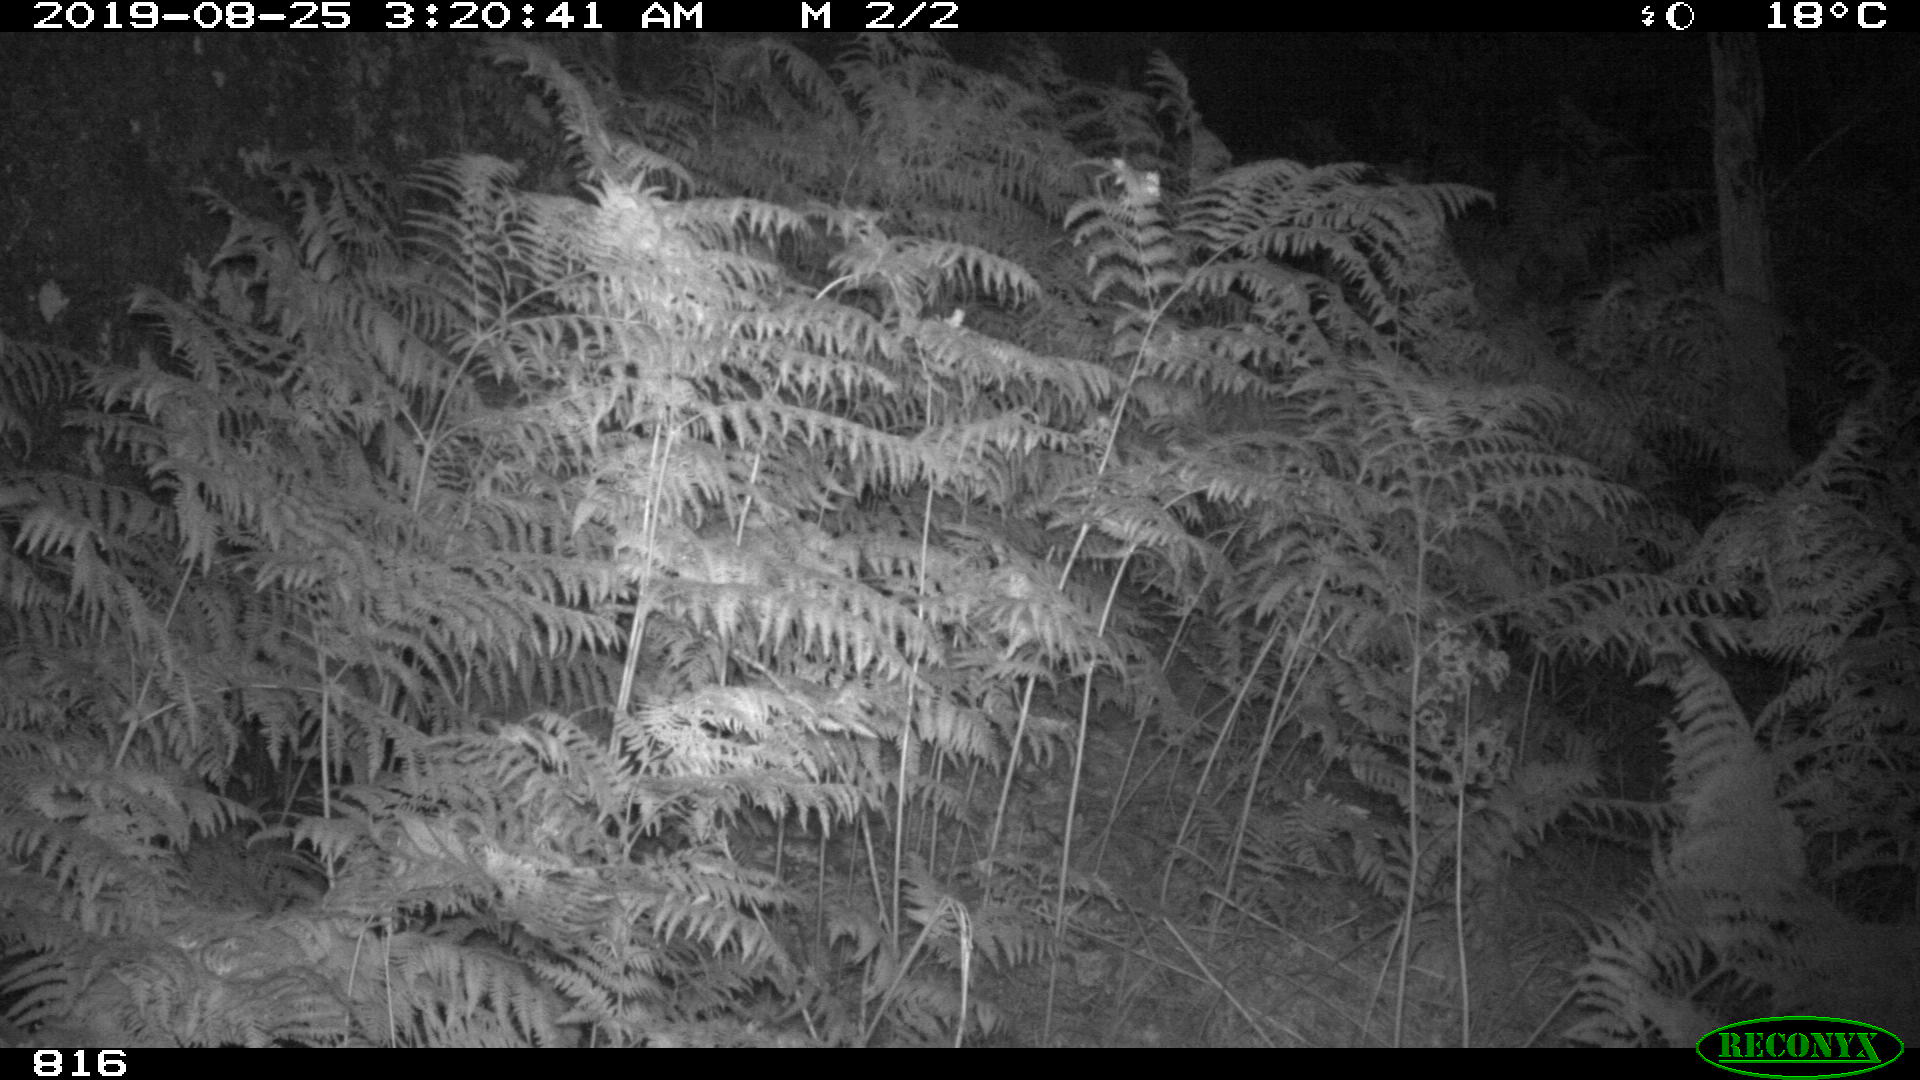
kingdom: Animalia
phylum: Chordata
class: Mammalia
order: Perissodactyla
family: Equidae
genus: Equus
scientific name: Equus caballus
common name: Horse
